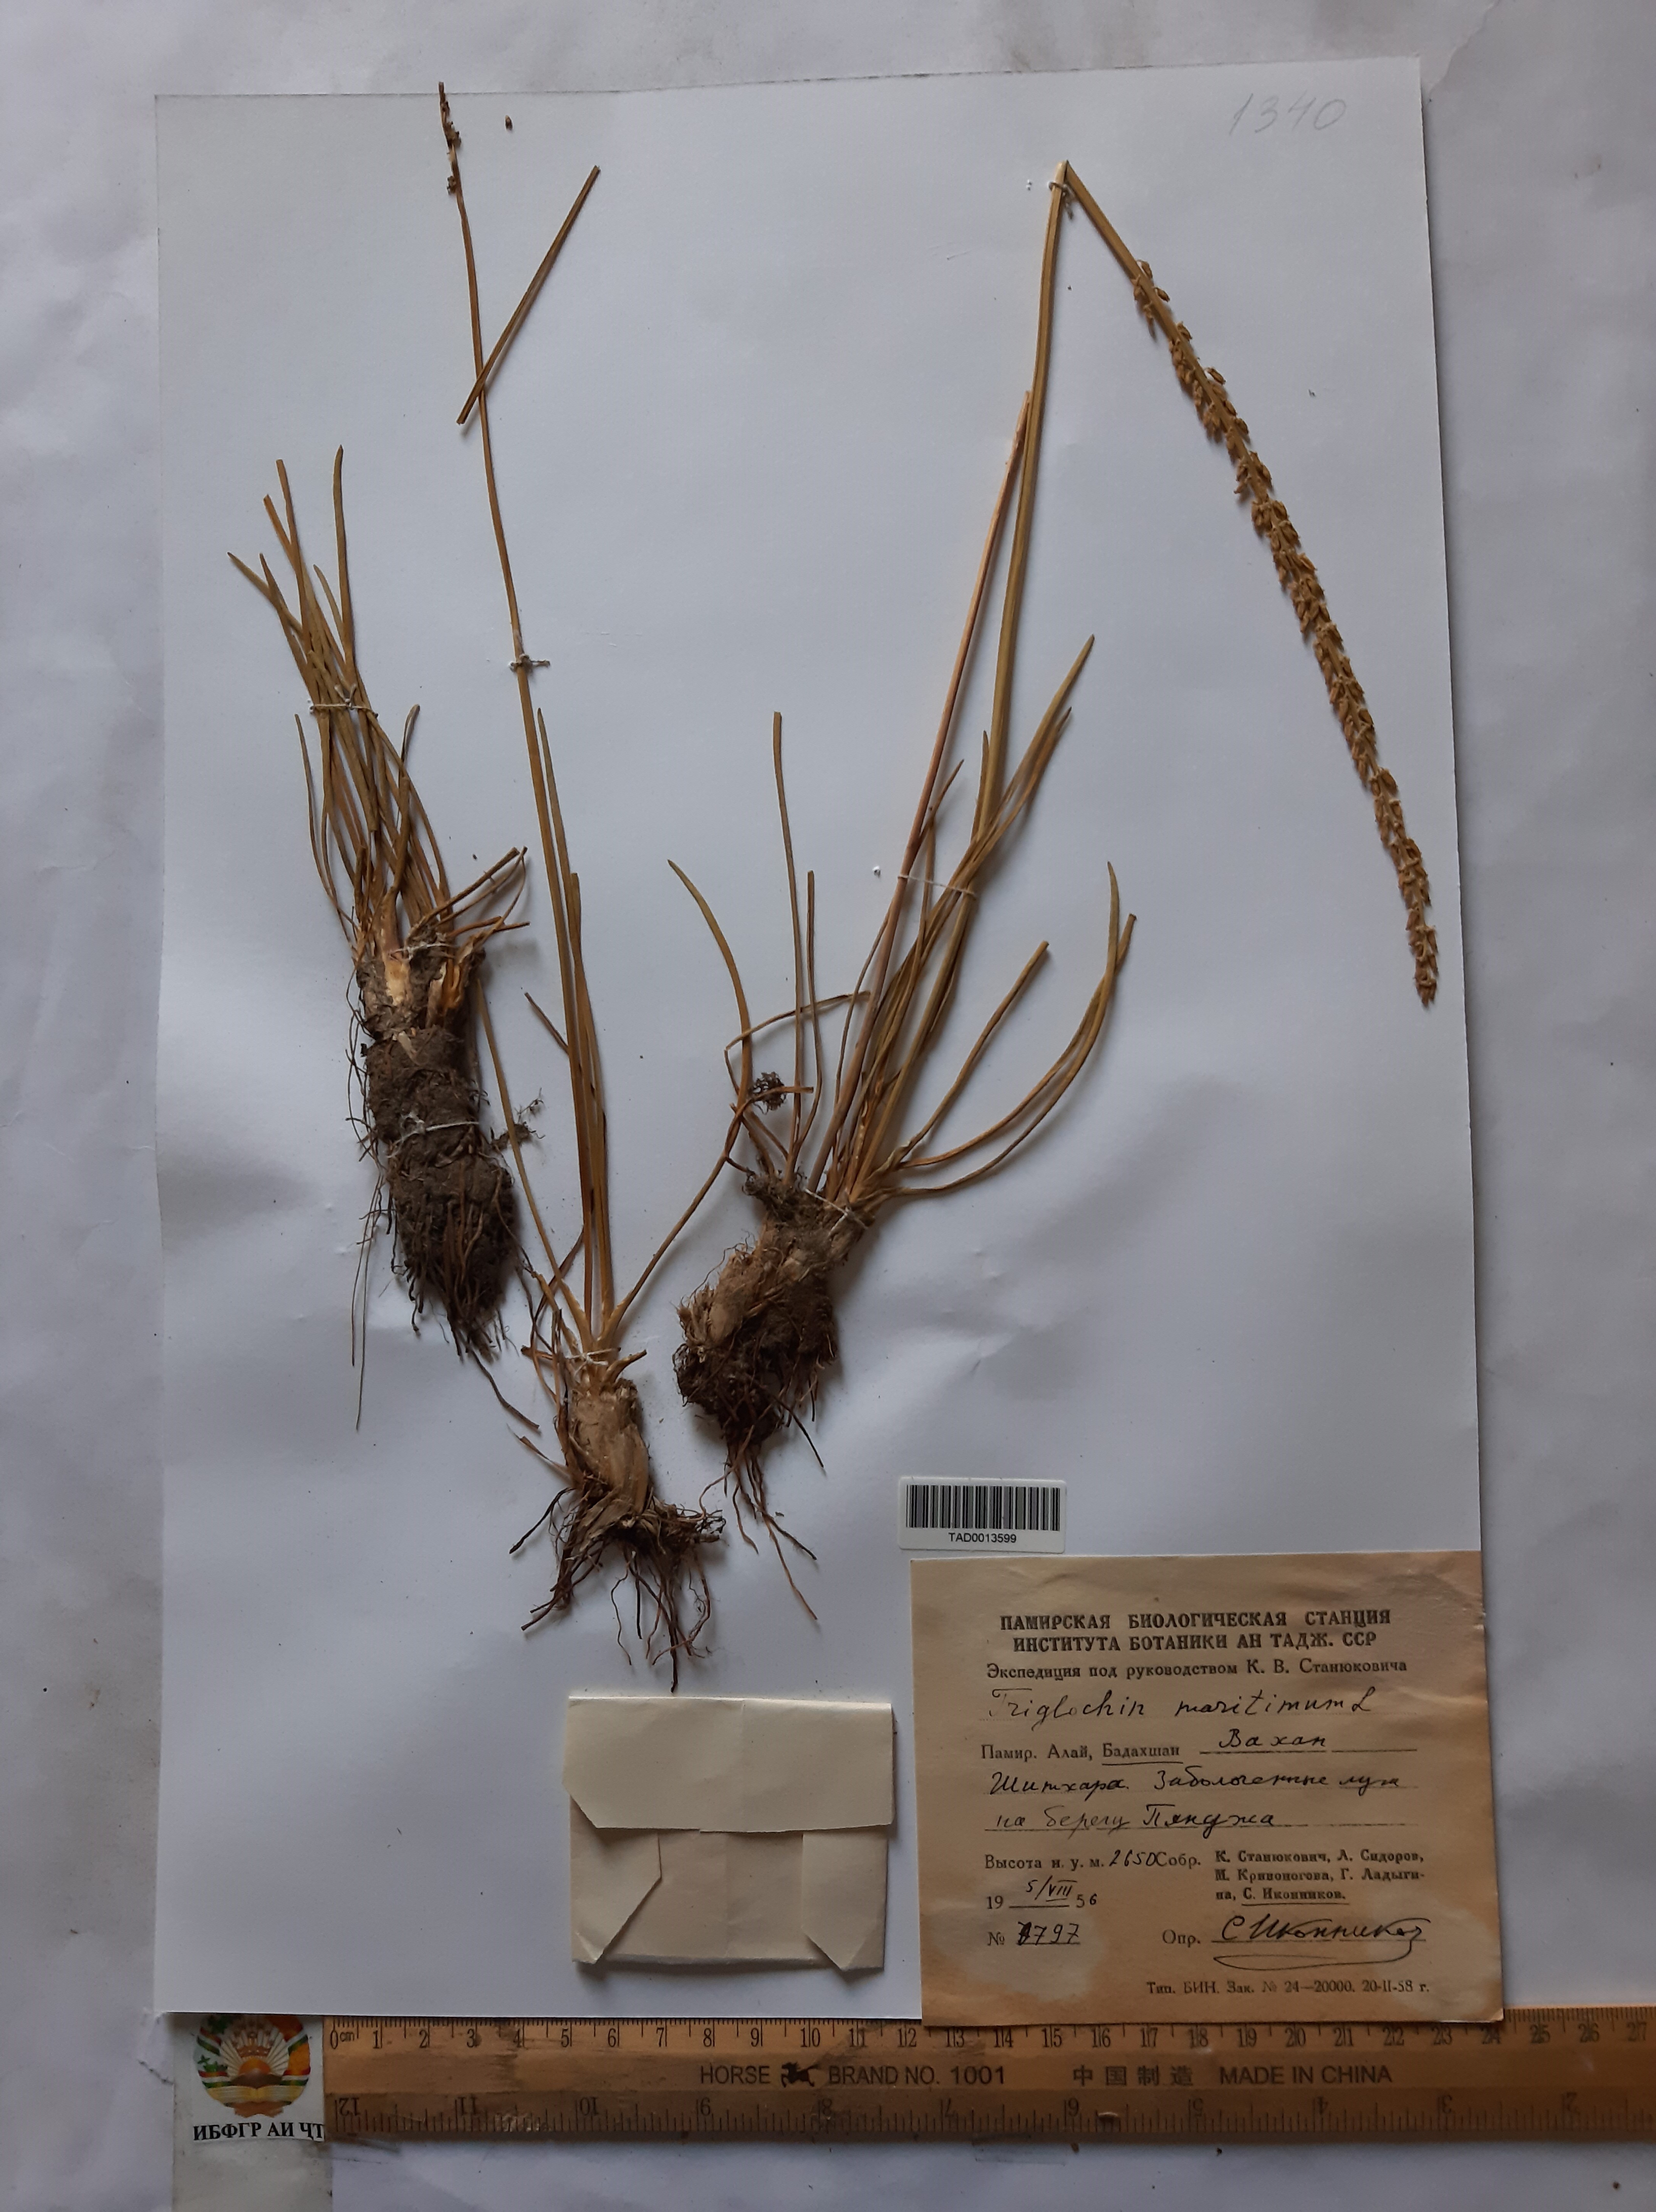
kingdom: Plantae
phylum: Tracheophyta
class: Liliopsida
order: Alismatales
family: Juncaginaceae
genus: Triglochin
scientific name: Triglochin maritima
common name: Sea arrowgrass
